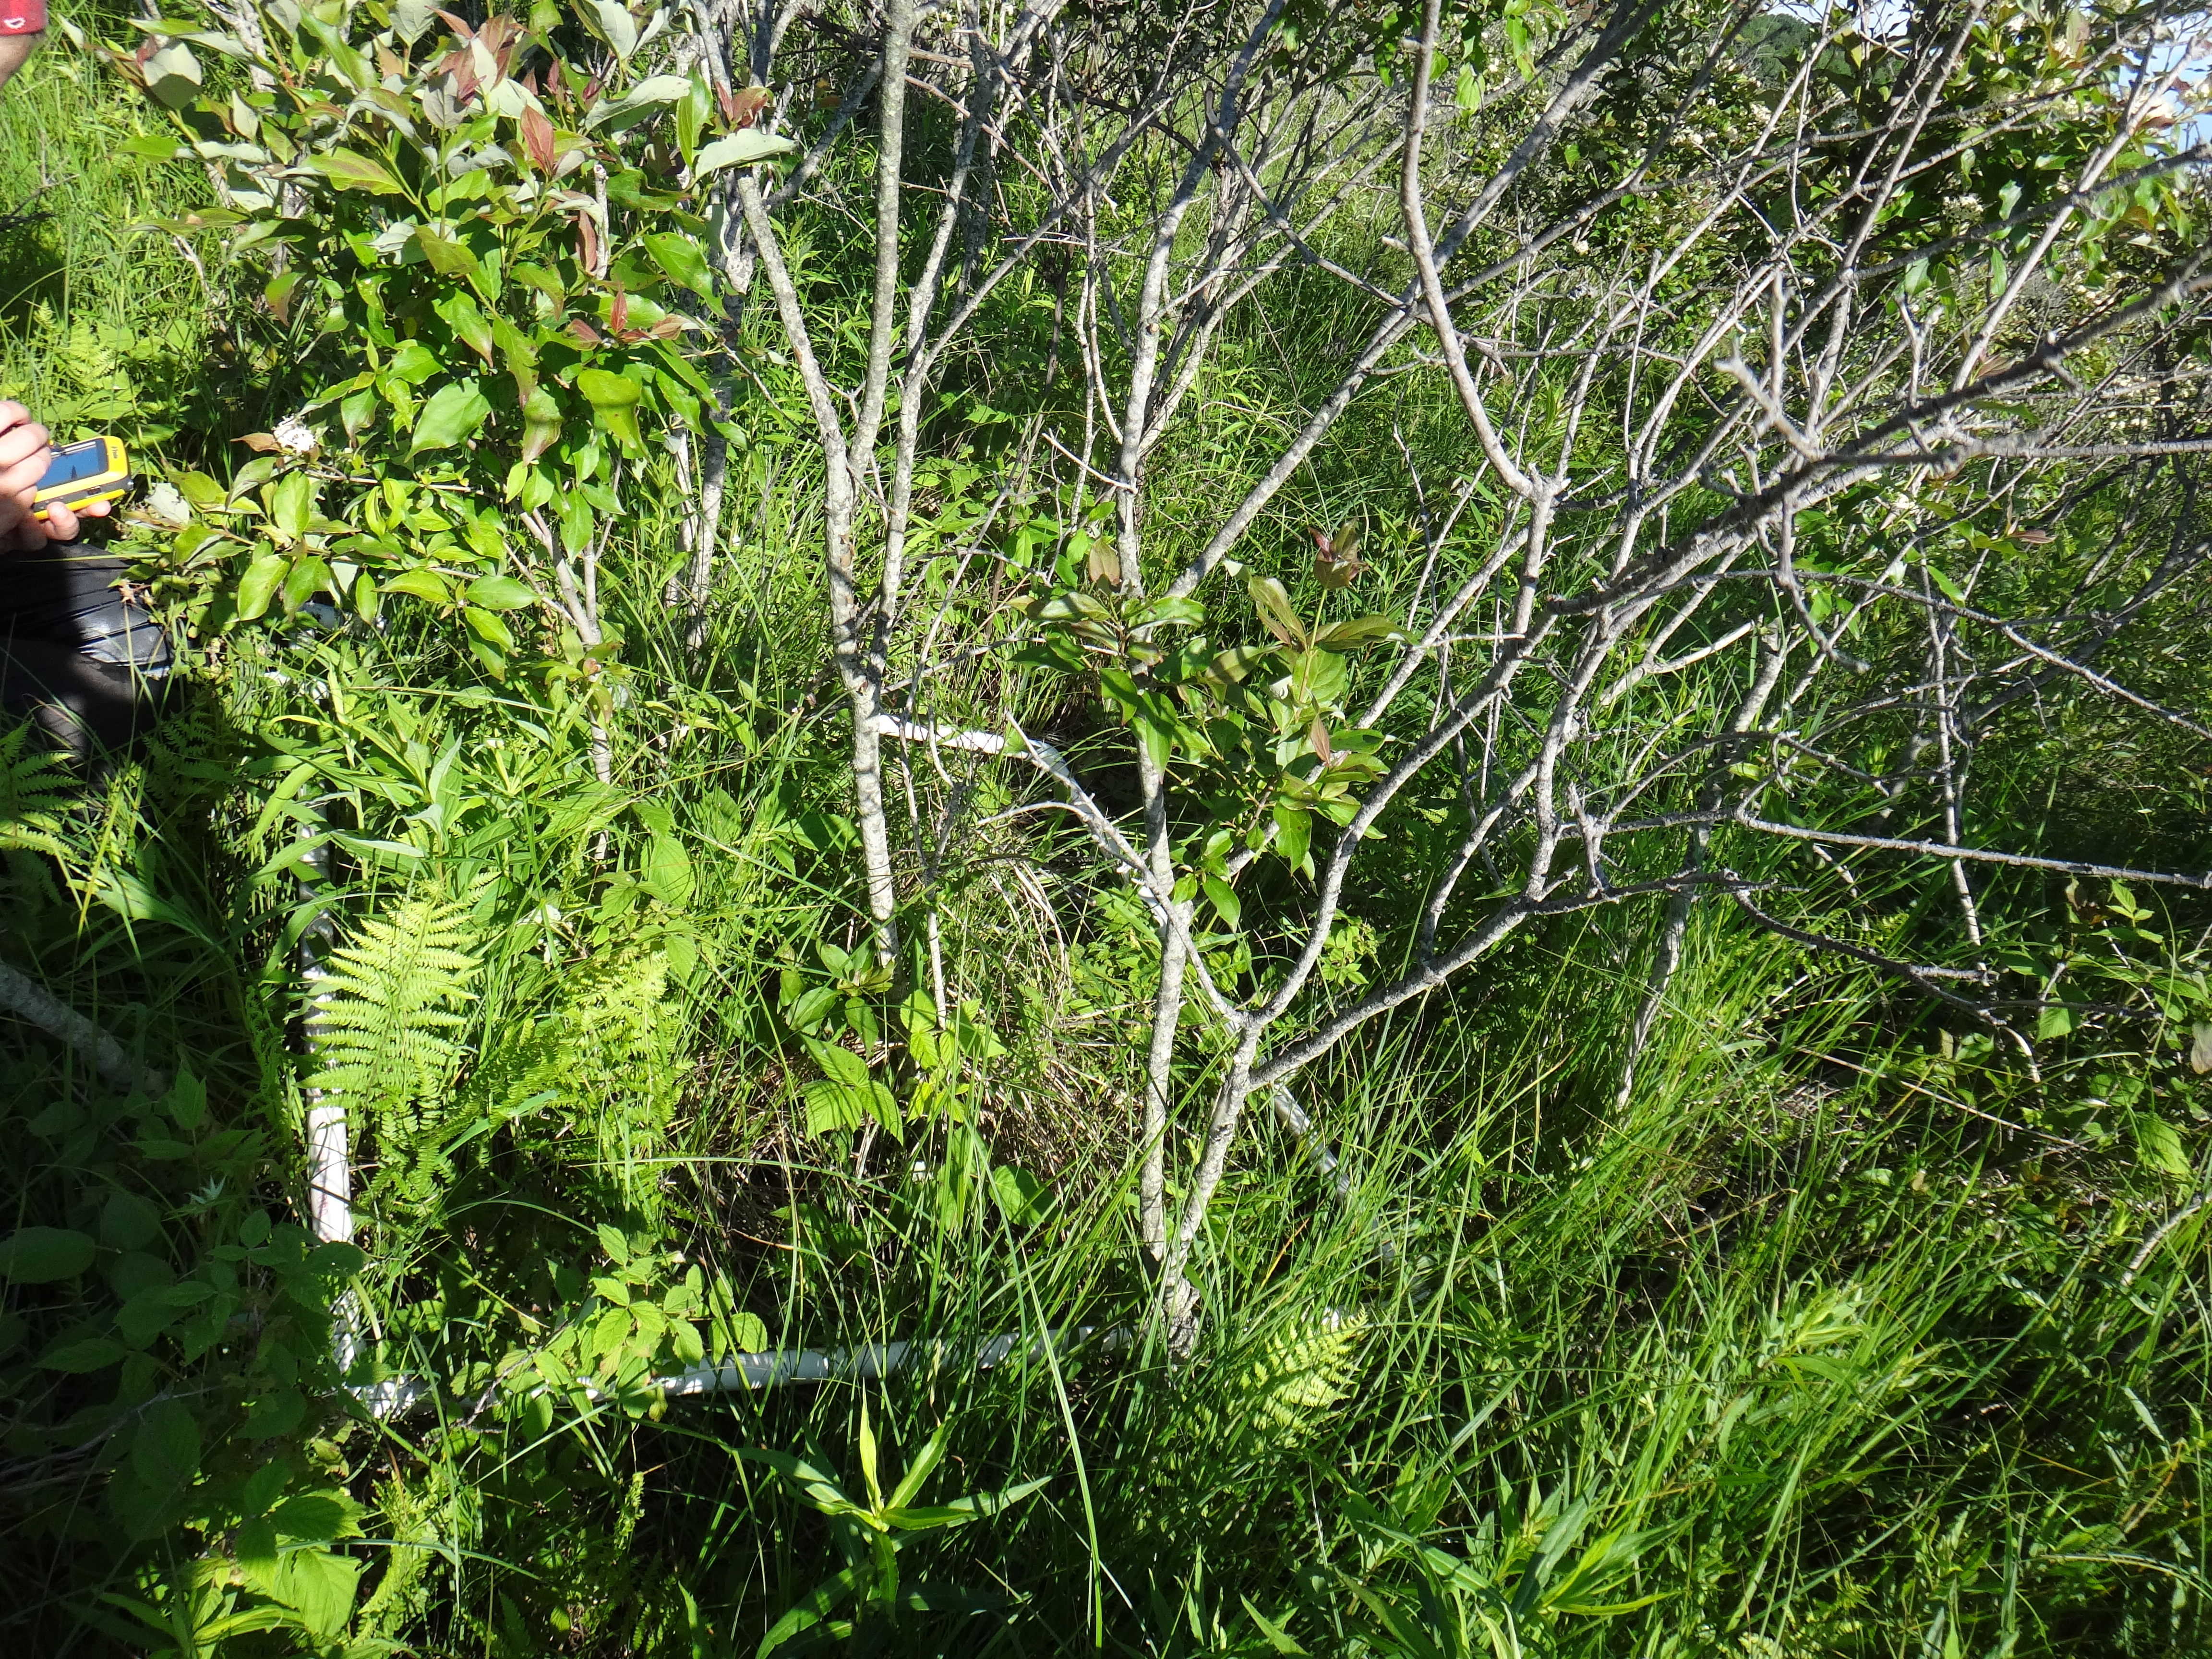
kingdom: Plantae
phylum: Tracheophyta
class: Liliopsida
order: Poales
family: Typhaceae
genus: Typha
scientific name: Typha angustifolia
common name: Lesser bulrush
